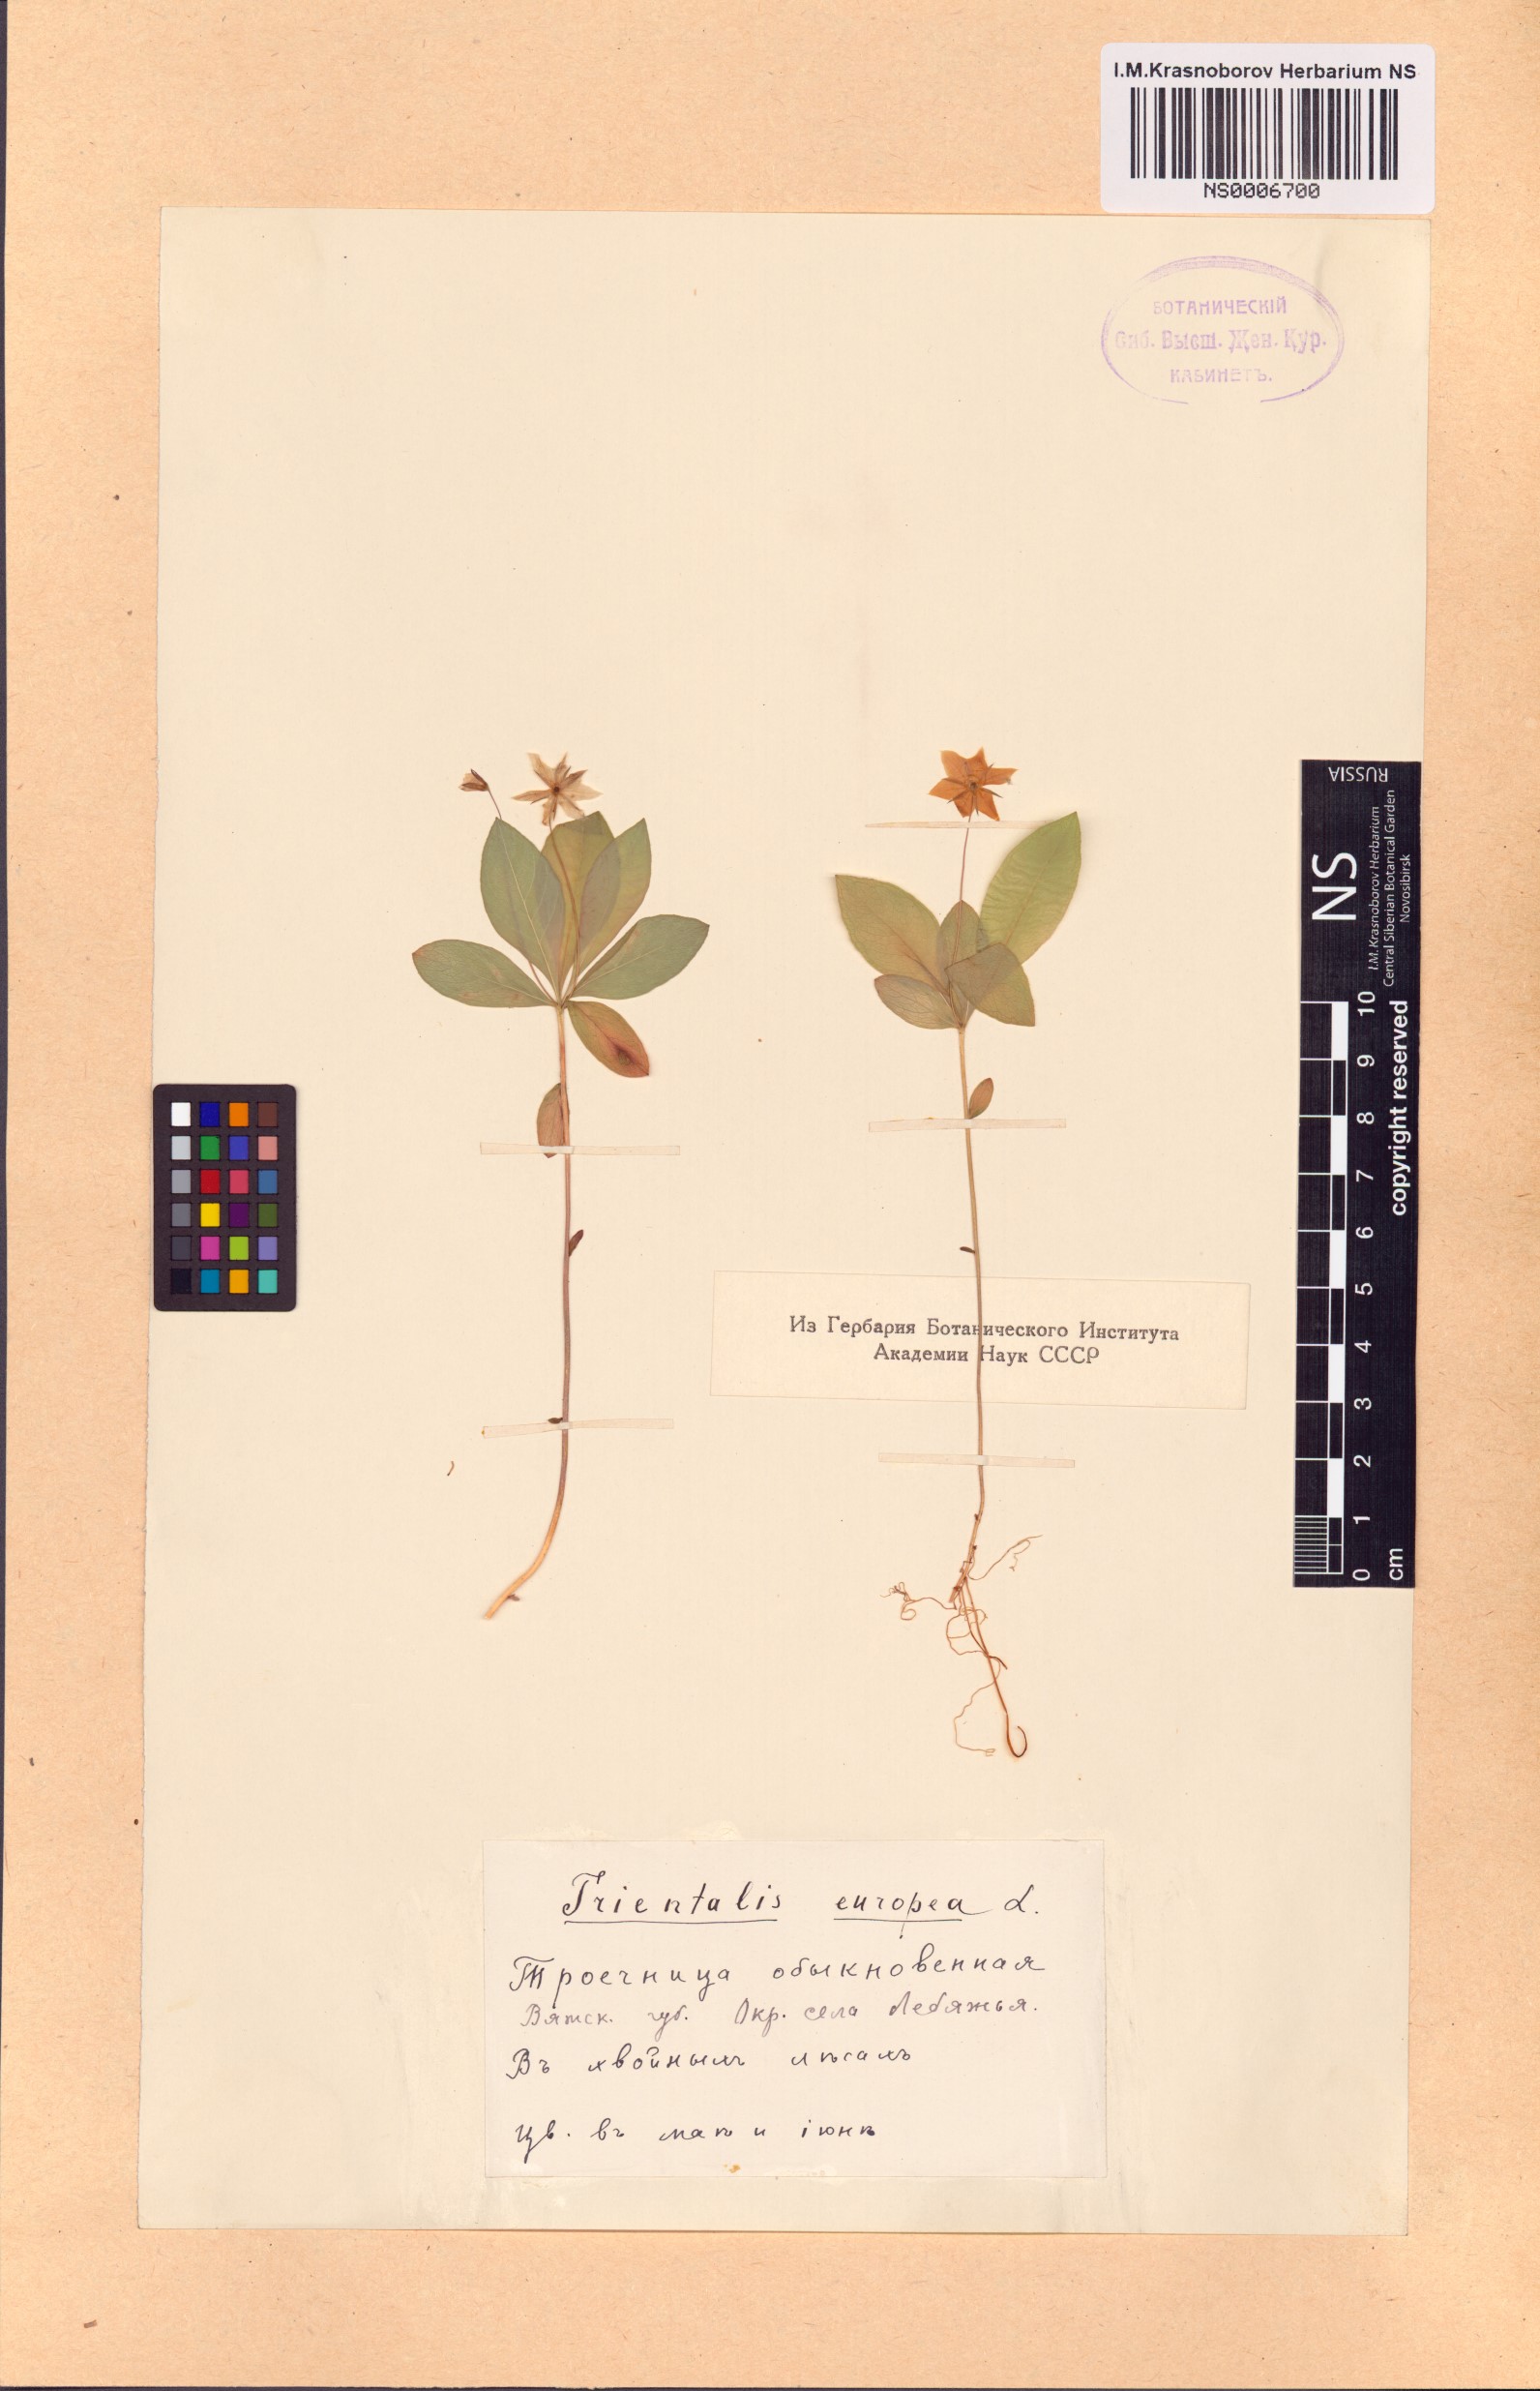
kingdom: Plantae
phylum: Tracheophyta
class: Magnoliopsida
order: Ericales
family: Primulaceae
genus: Lysimachia
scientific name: Lysimachia europaea
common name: Arctic starflower
